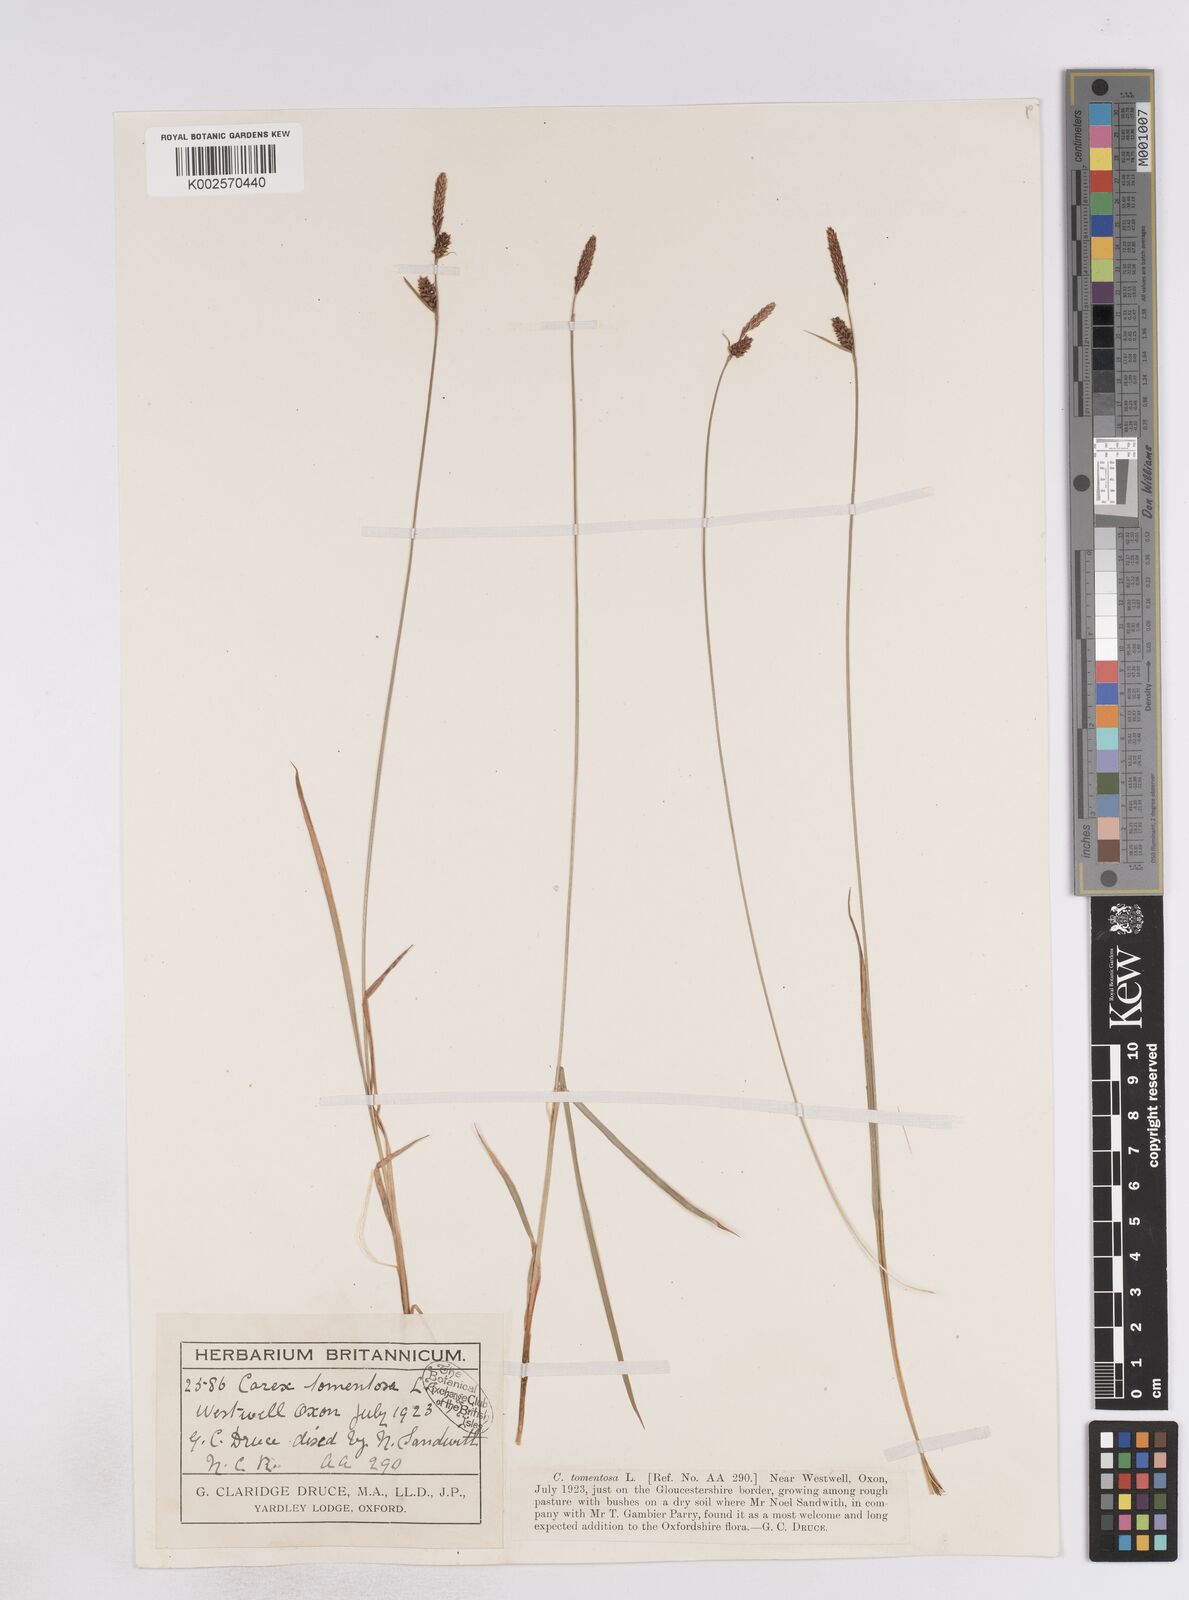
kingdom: Plantae
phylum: Tracheophyta
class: Liliopsida
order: Poales
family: Cyperaceae
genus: Carex
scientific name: Carex montana
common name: Soft-leaved sedge
